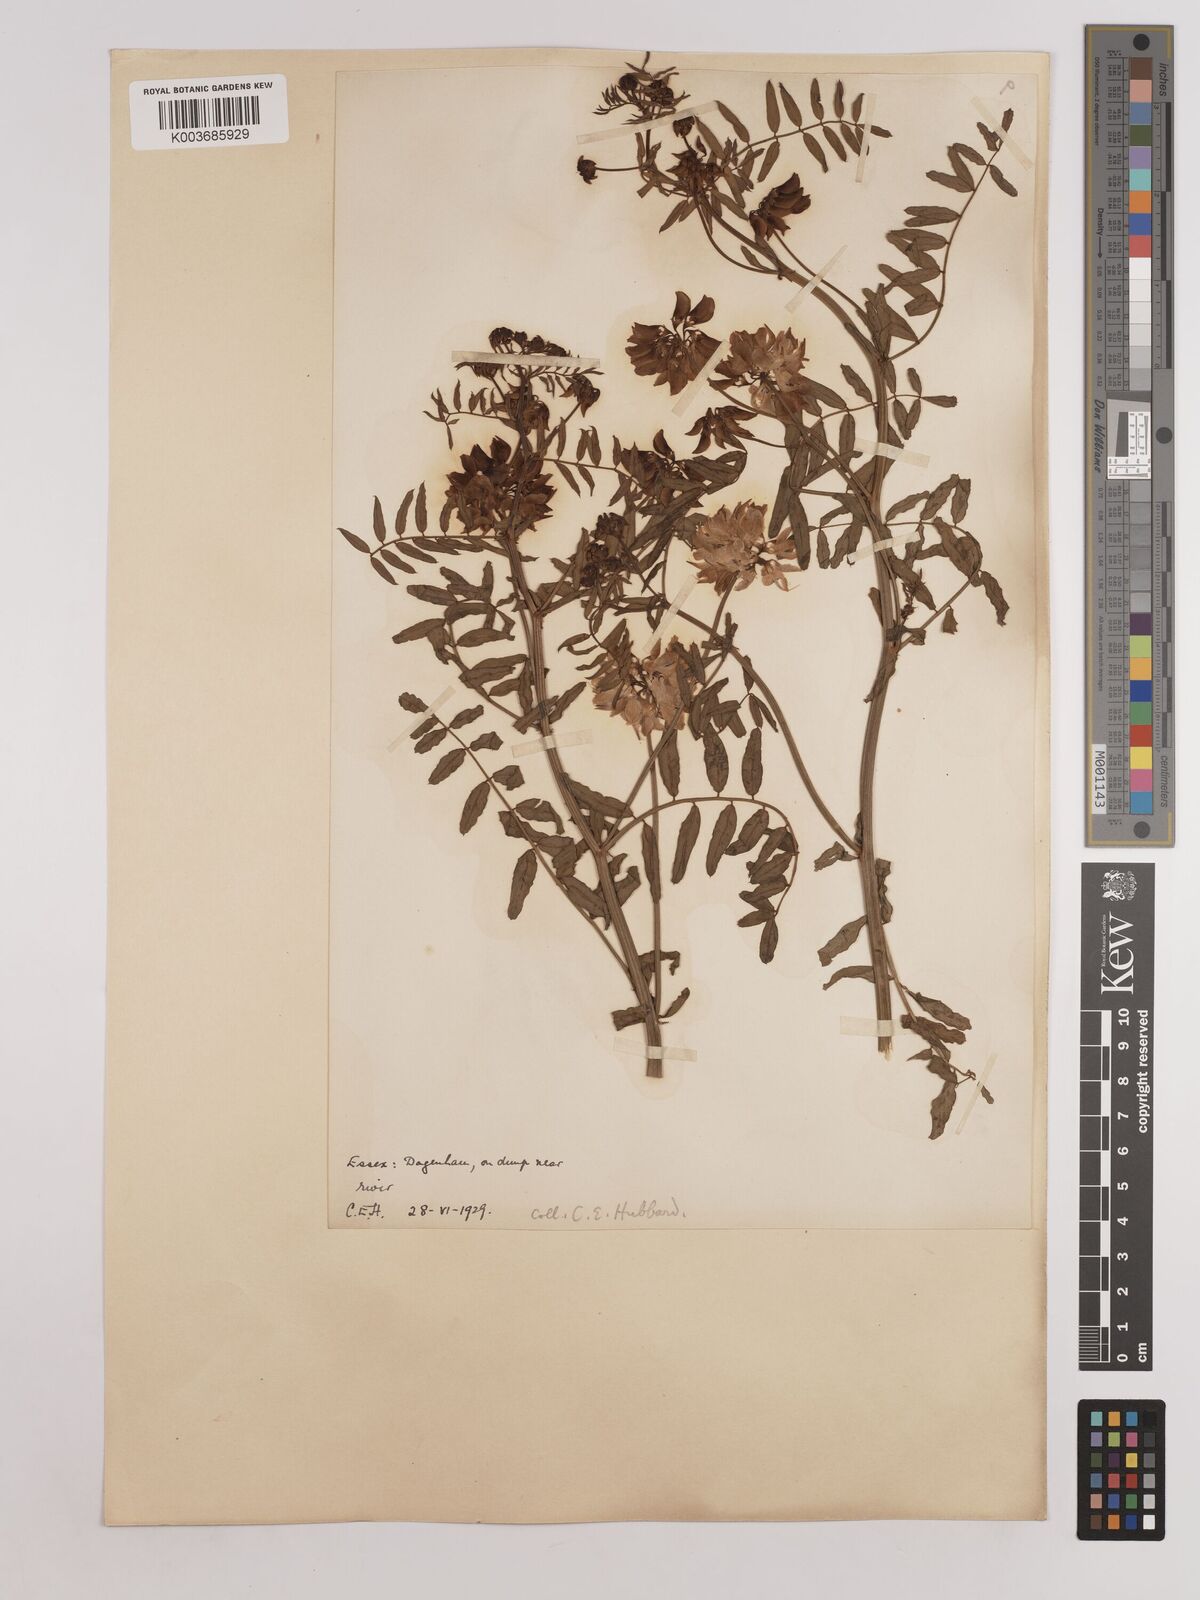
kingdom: Plantae
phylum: Tracheophyta
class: Magnoliopsida
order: Fabales
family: Fabaceae
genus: Coronilla
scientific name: Coronilla varia
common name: Crownvetch
